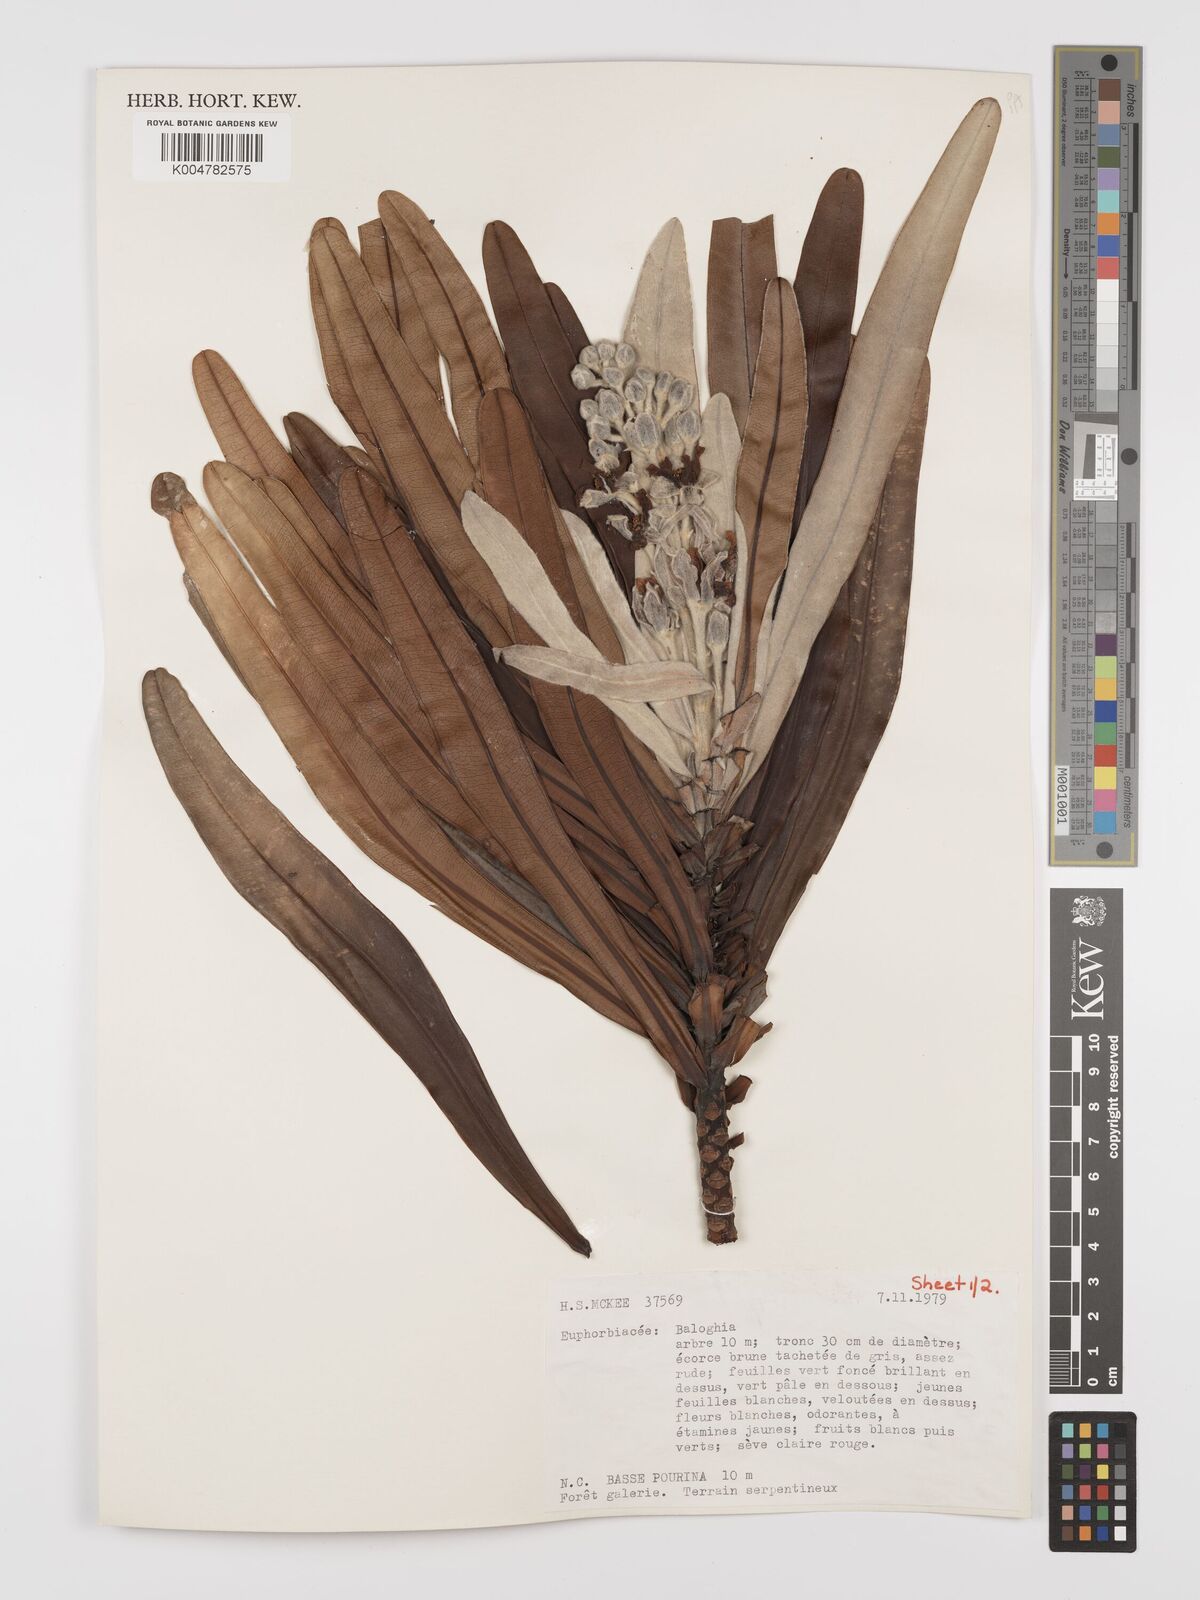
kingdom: Plantae
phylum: Tracheophyta
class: Magnoliopsida
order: Malpighiales
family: Euphorbiaceae
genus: Baloghia
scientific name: Baloghia anisomera
